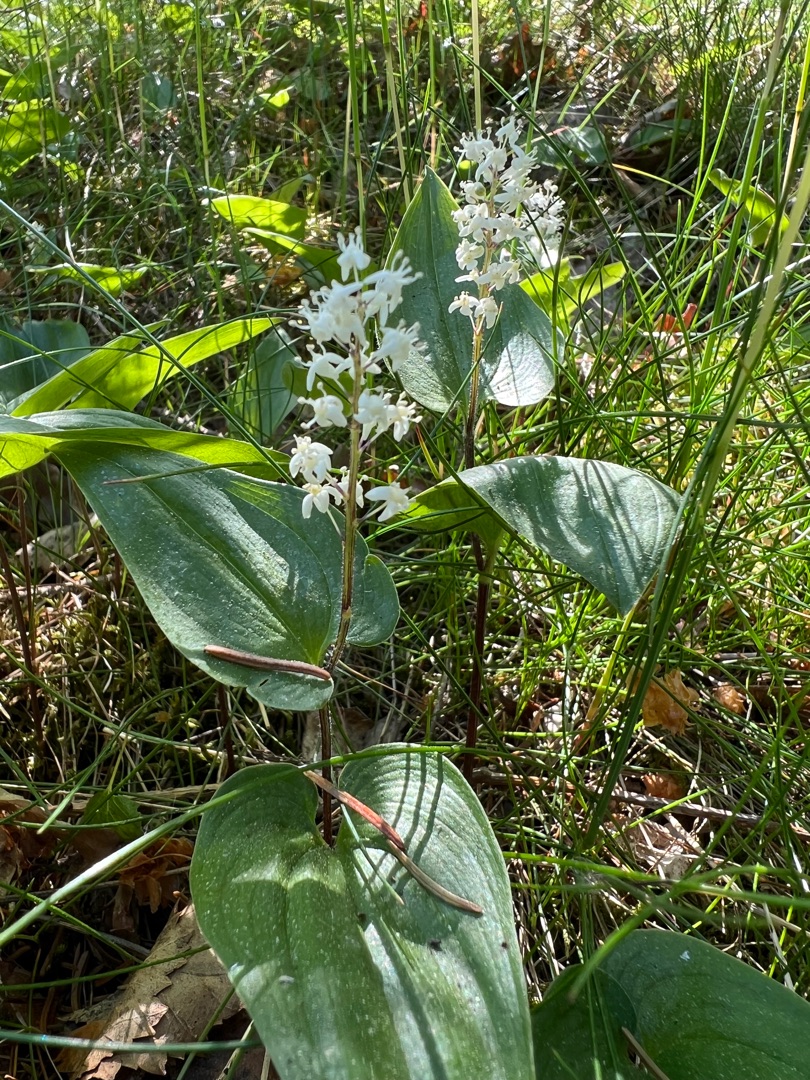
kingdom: Plantae
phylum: Tracheophyta
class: Liliopsida
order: Asparagales
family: Asparagaceae
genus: Maianthemum
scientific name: Maianthemum bifolium
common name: Majblomst
